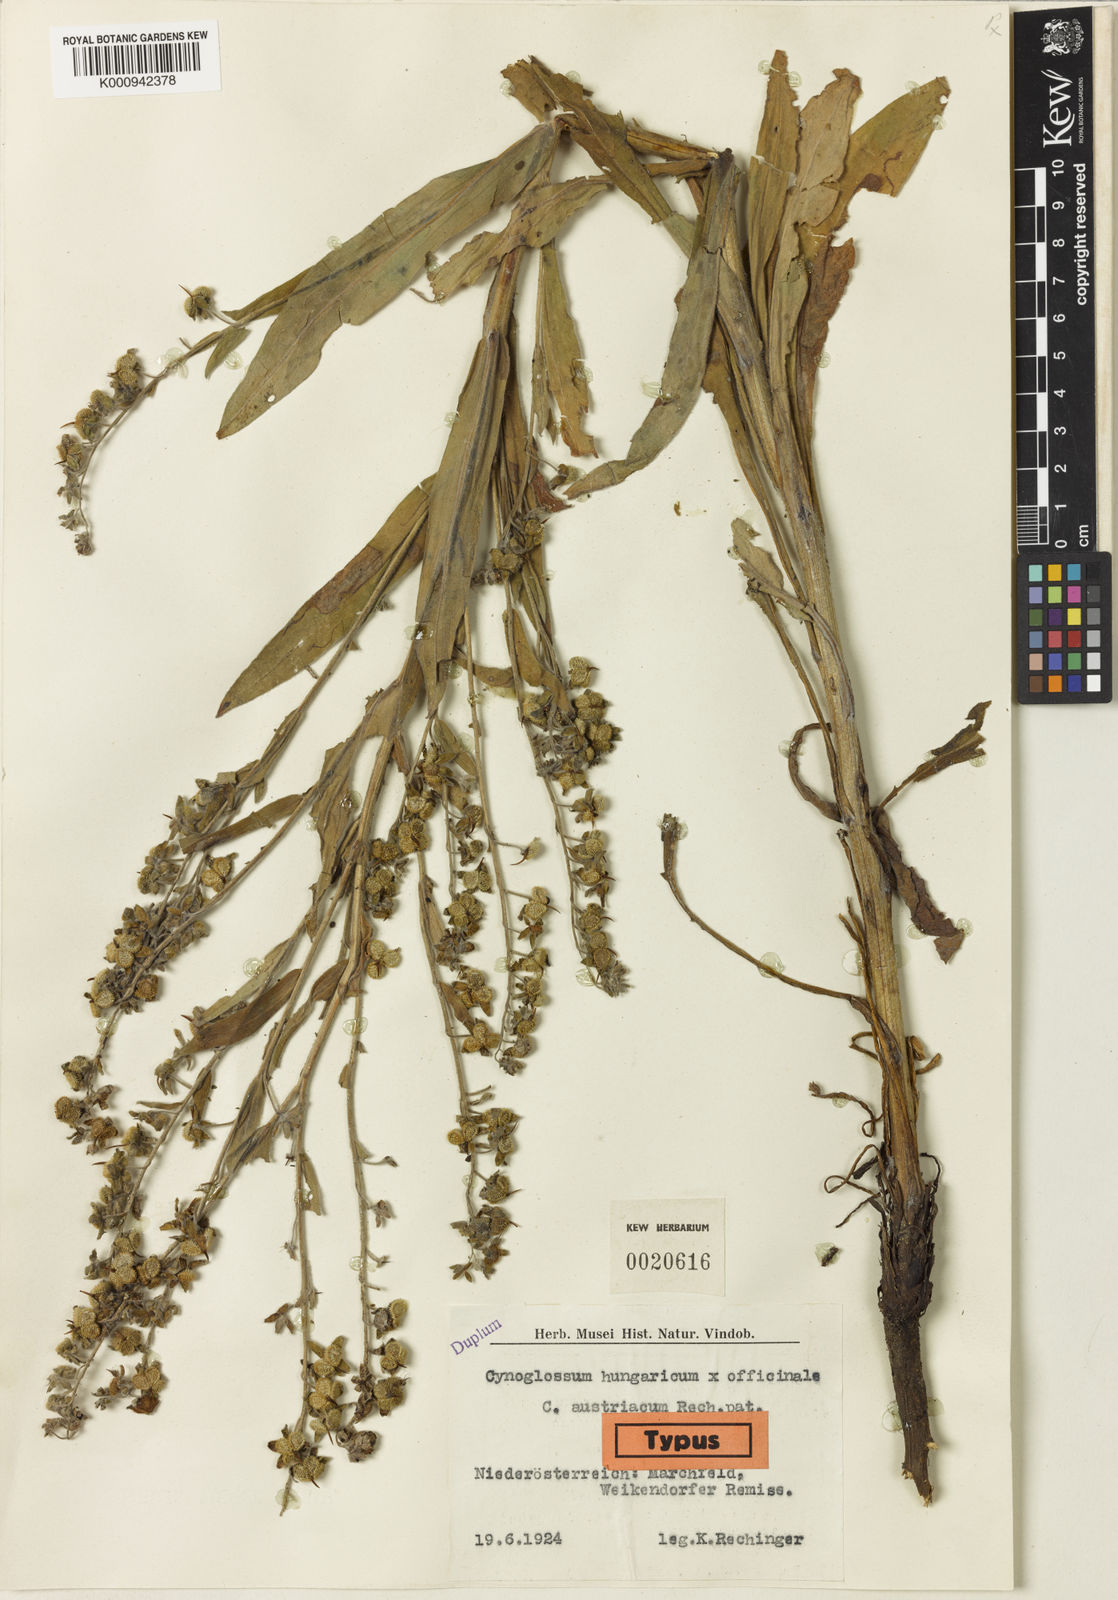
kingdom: Plantae
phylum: Tracheophyta
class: Magnoliopsida
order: Boraginales
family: Boraginaceae
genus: Cynoglossum
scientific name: Cynoglossum montanum
